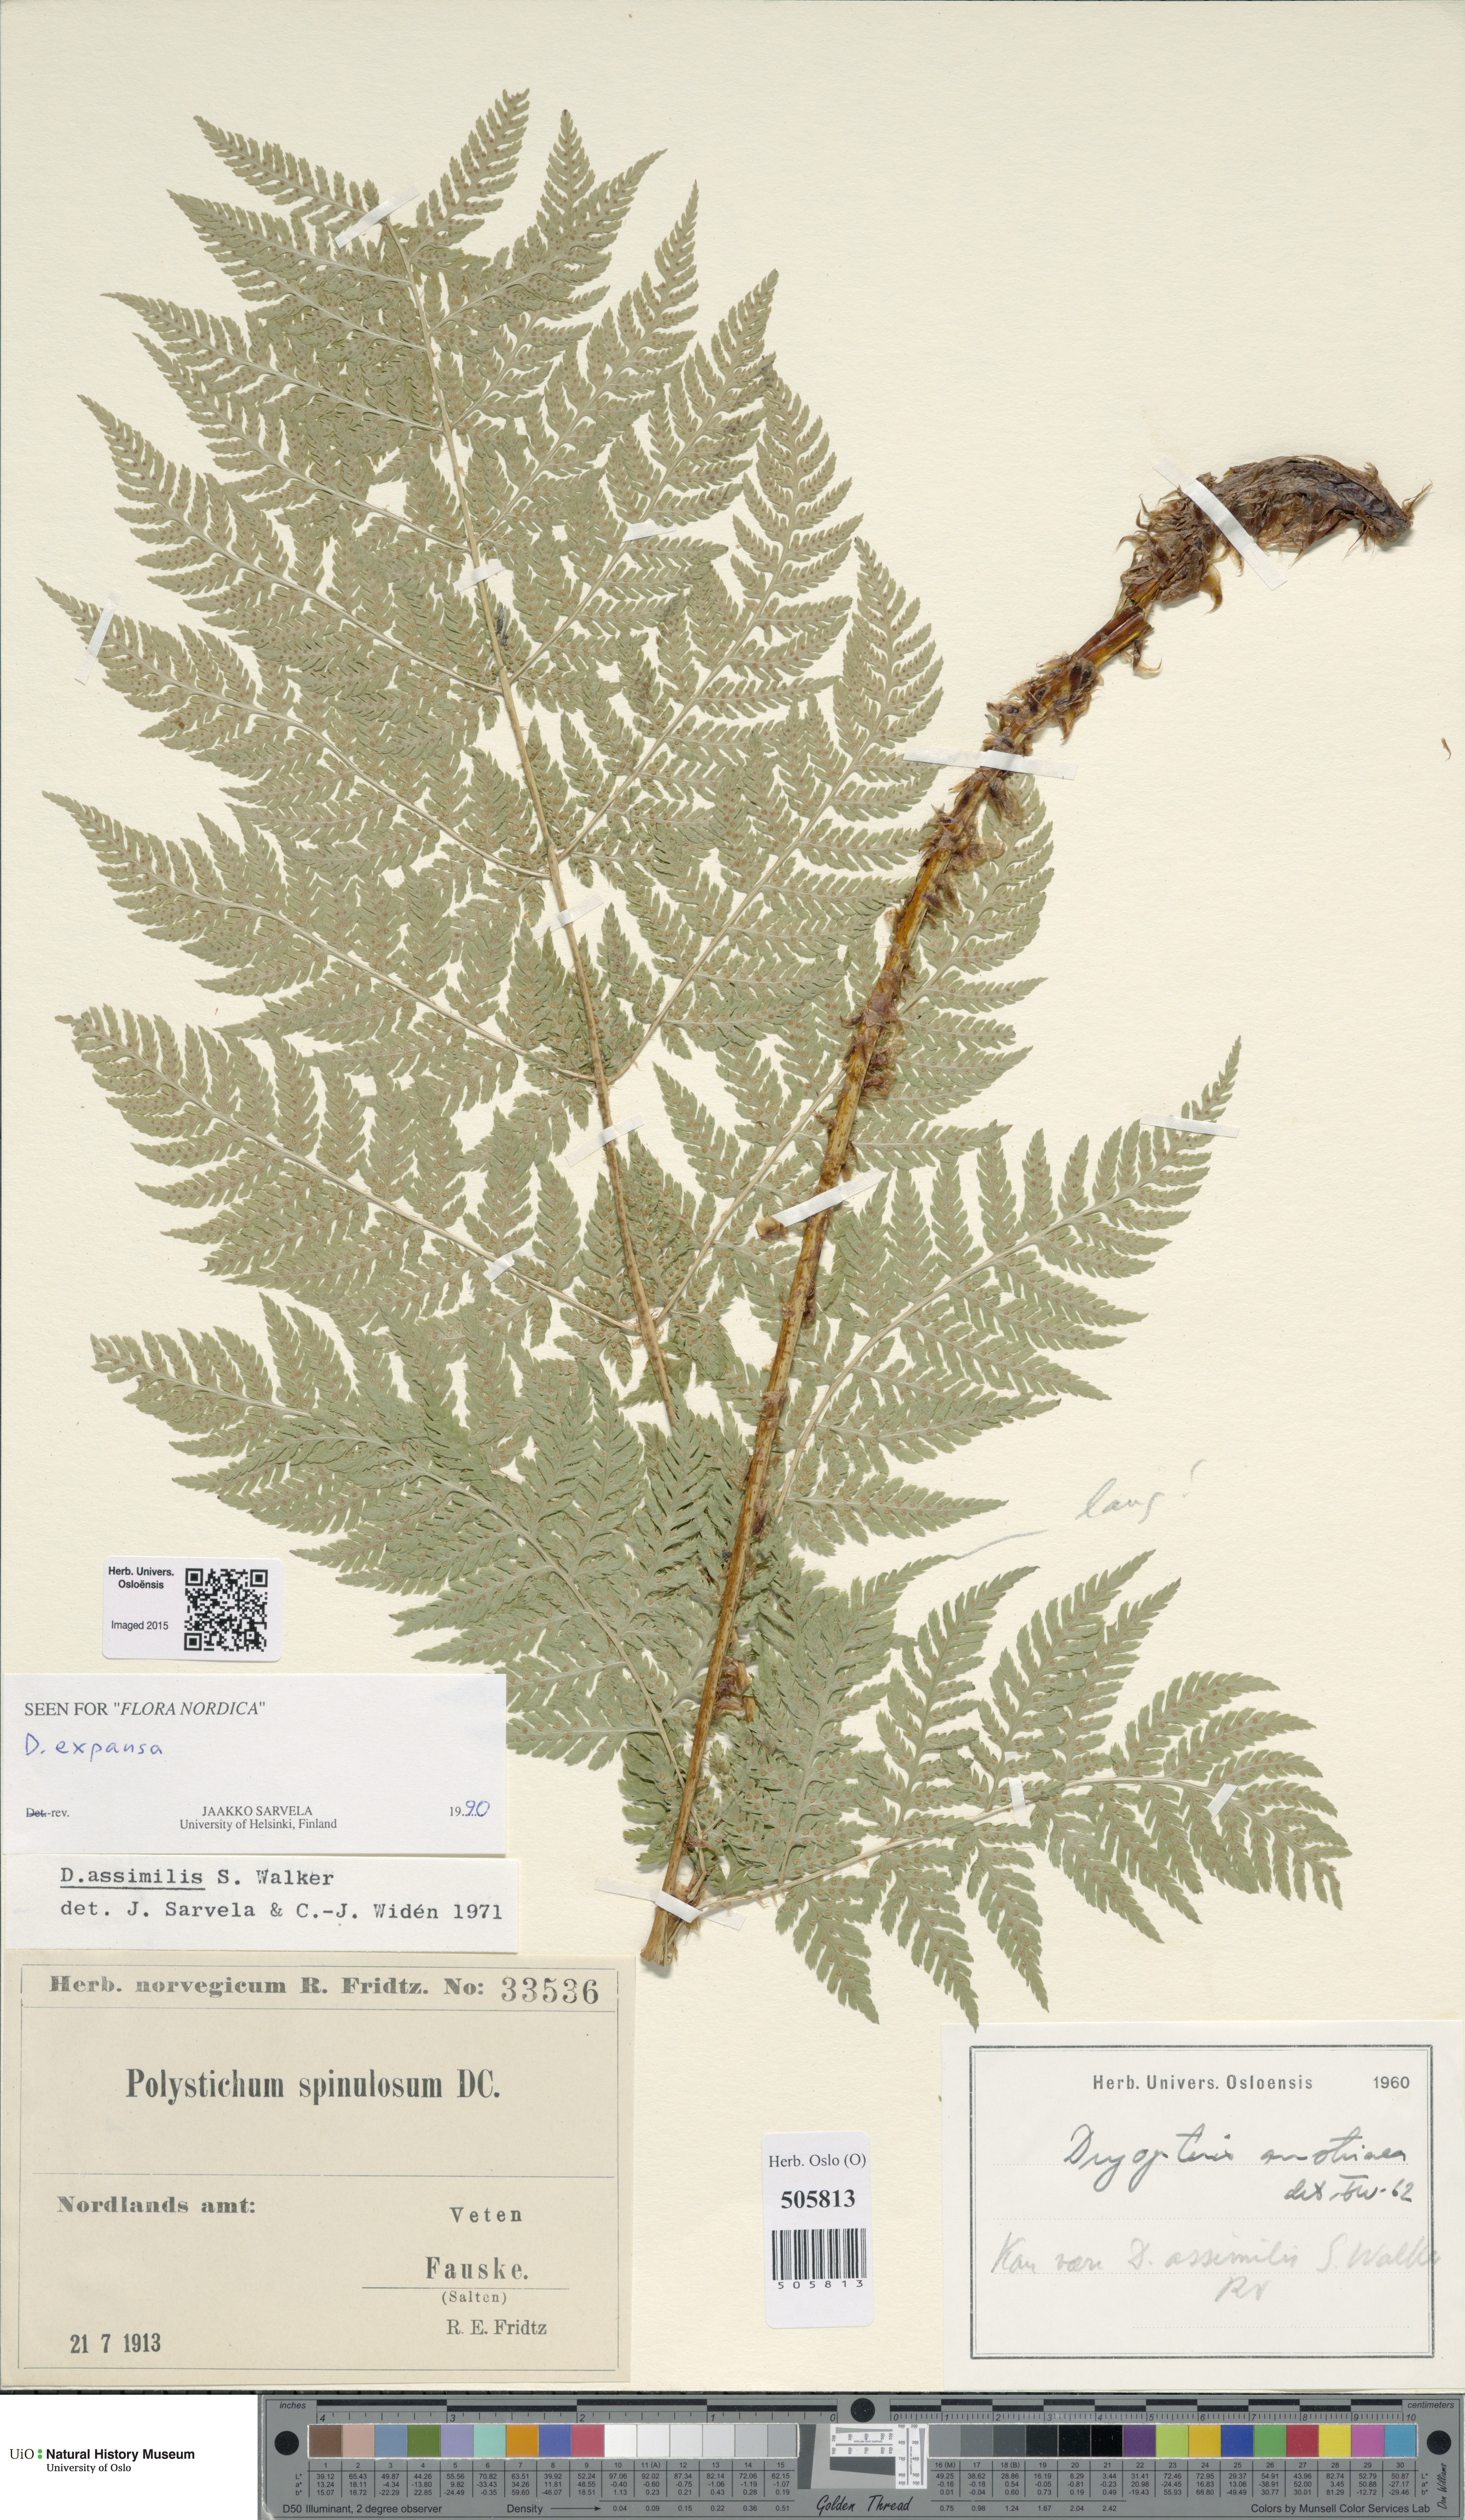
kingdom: Plantae
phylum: Tracheophyta
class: Polypodiopsida
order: Polypodiales
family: Dryopteridaceae
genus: Dryopteris
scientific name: Dryopteris expansa
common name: Northern buckler fern
